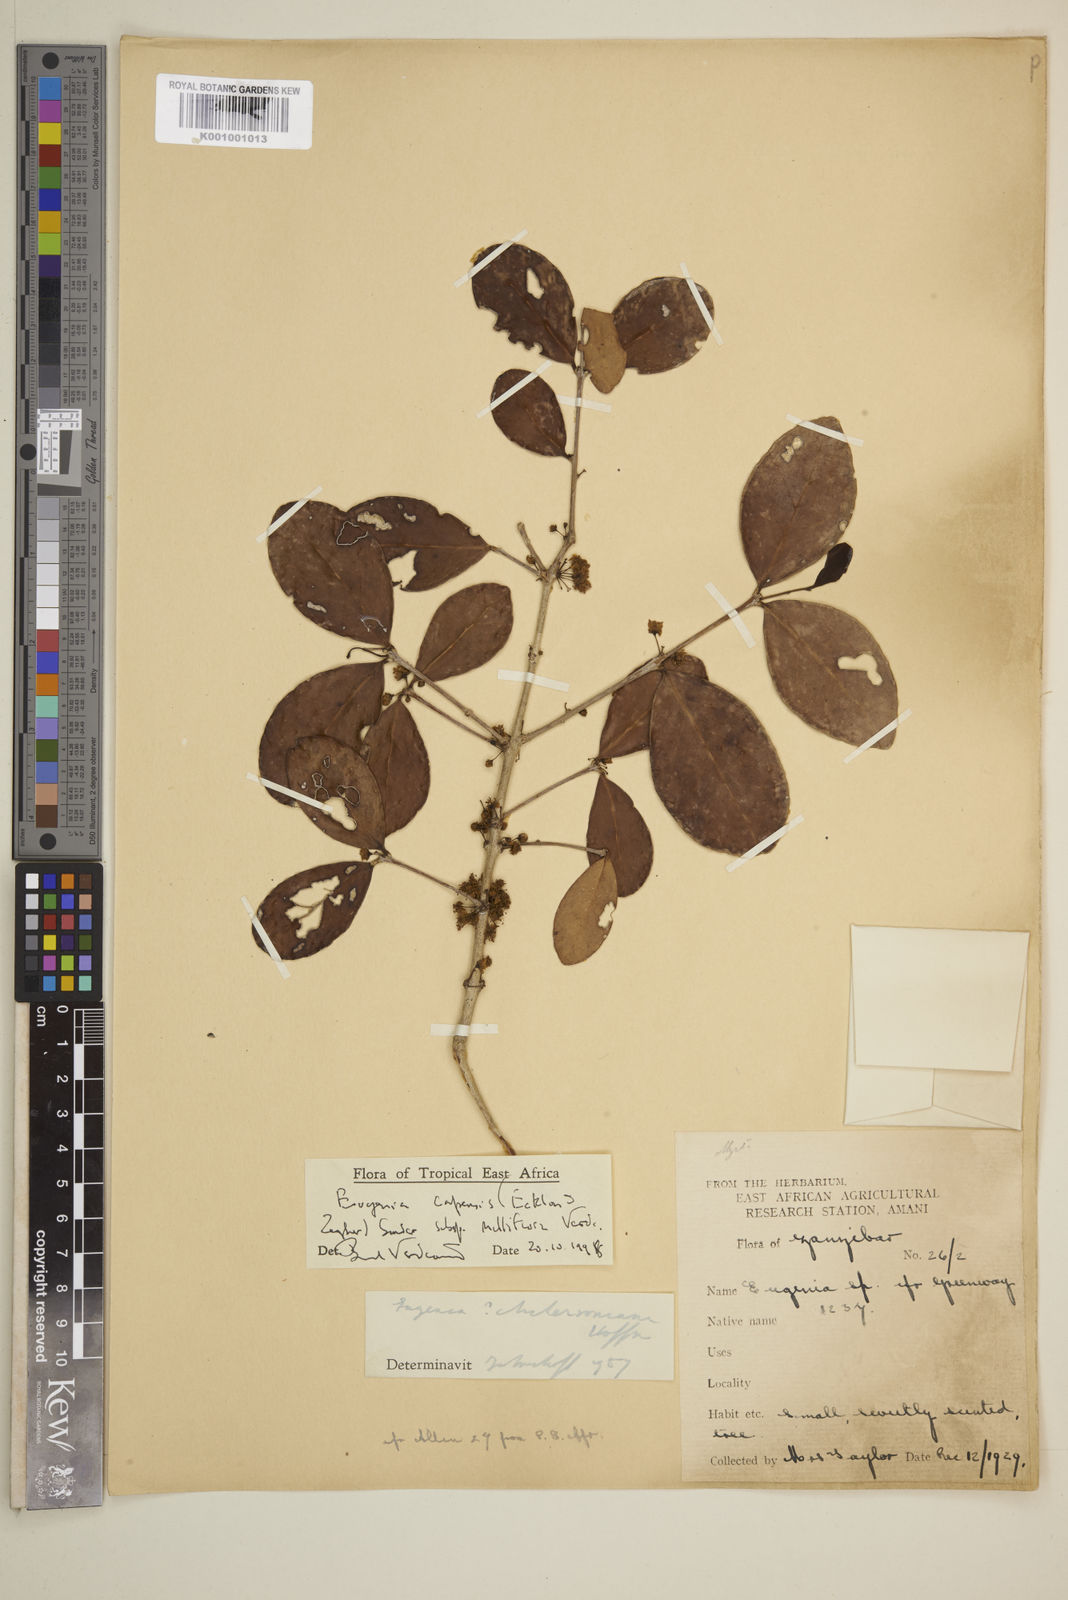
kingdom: Plantae
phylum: Tracheophyta
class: Magnoliopsida
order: Myrtales
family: Myrtaceae
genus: Eugenia
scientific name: Eugenia capensis
